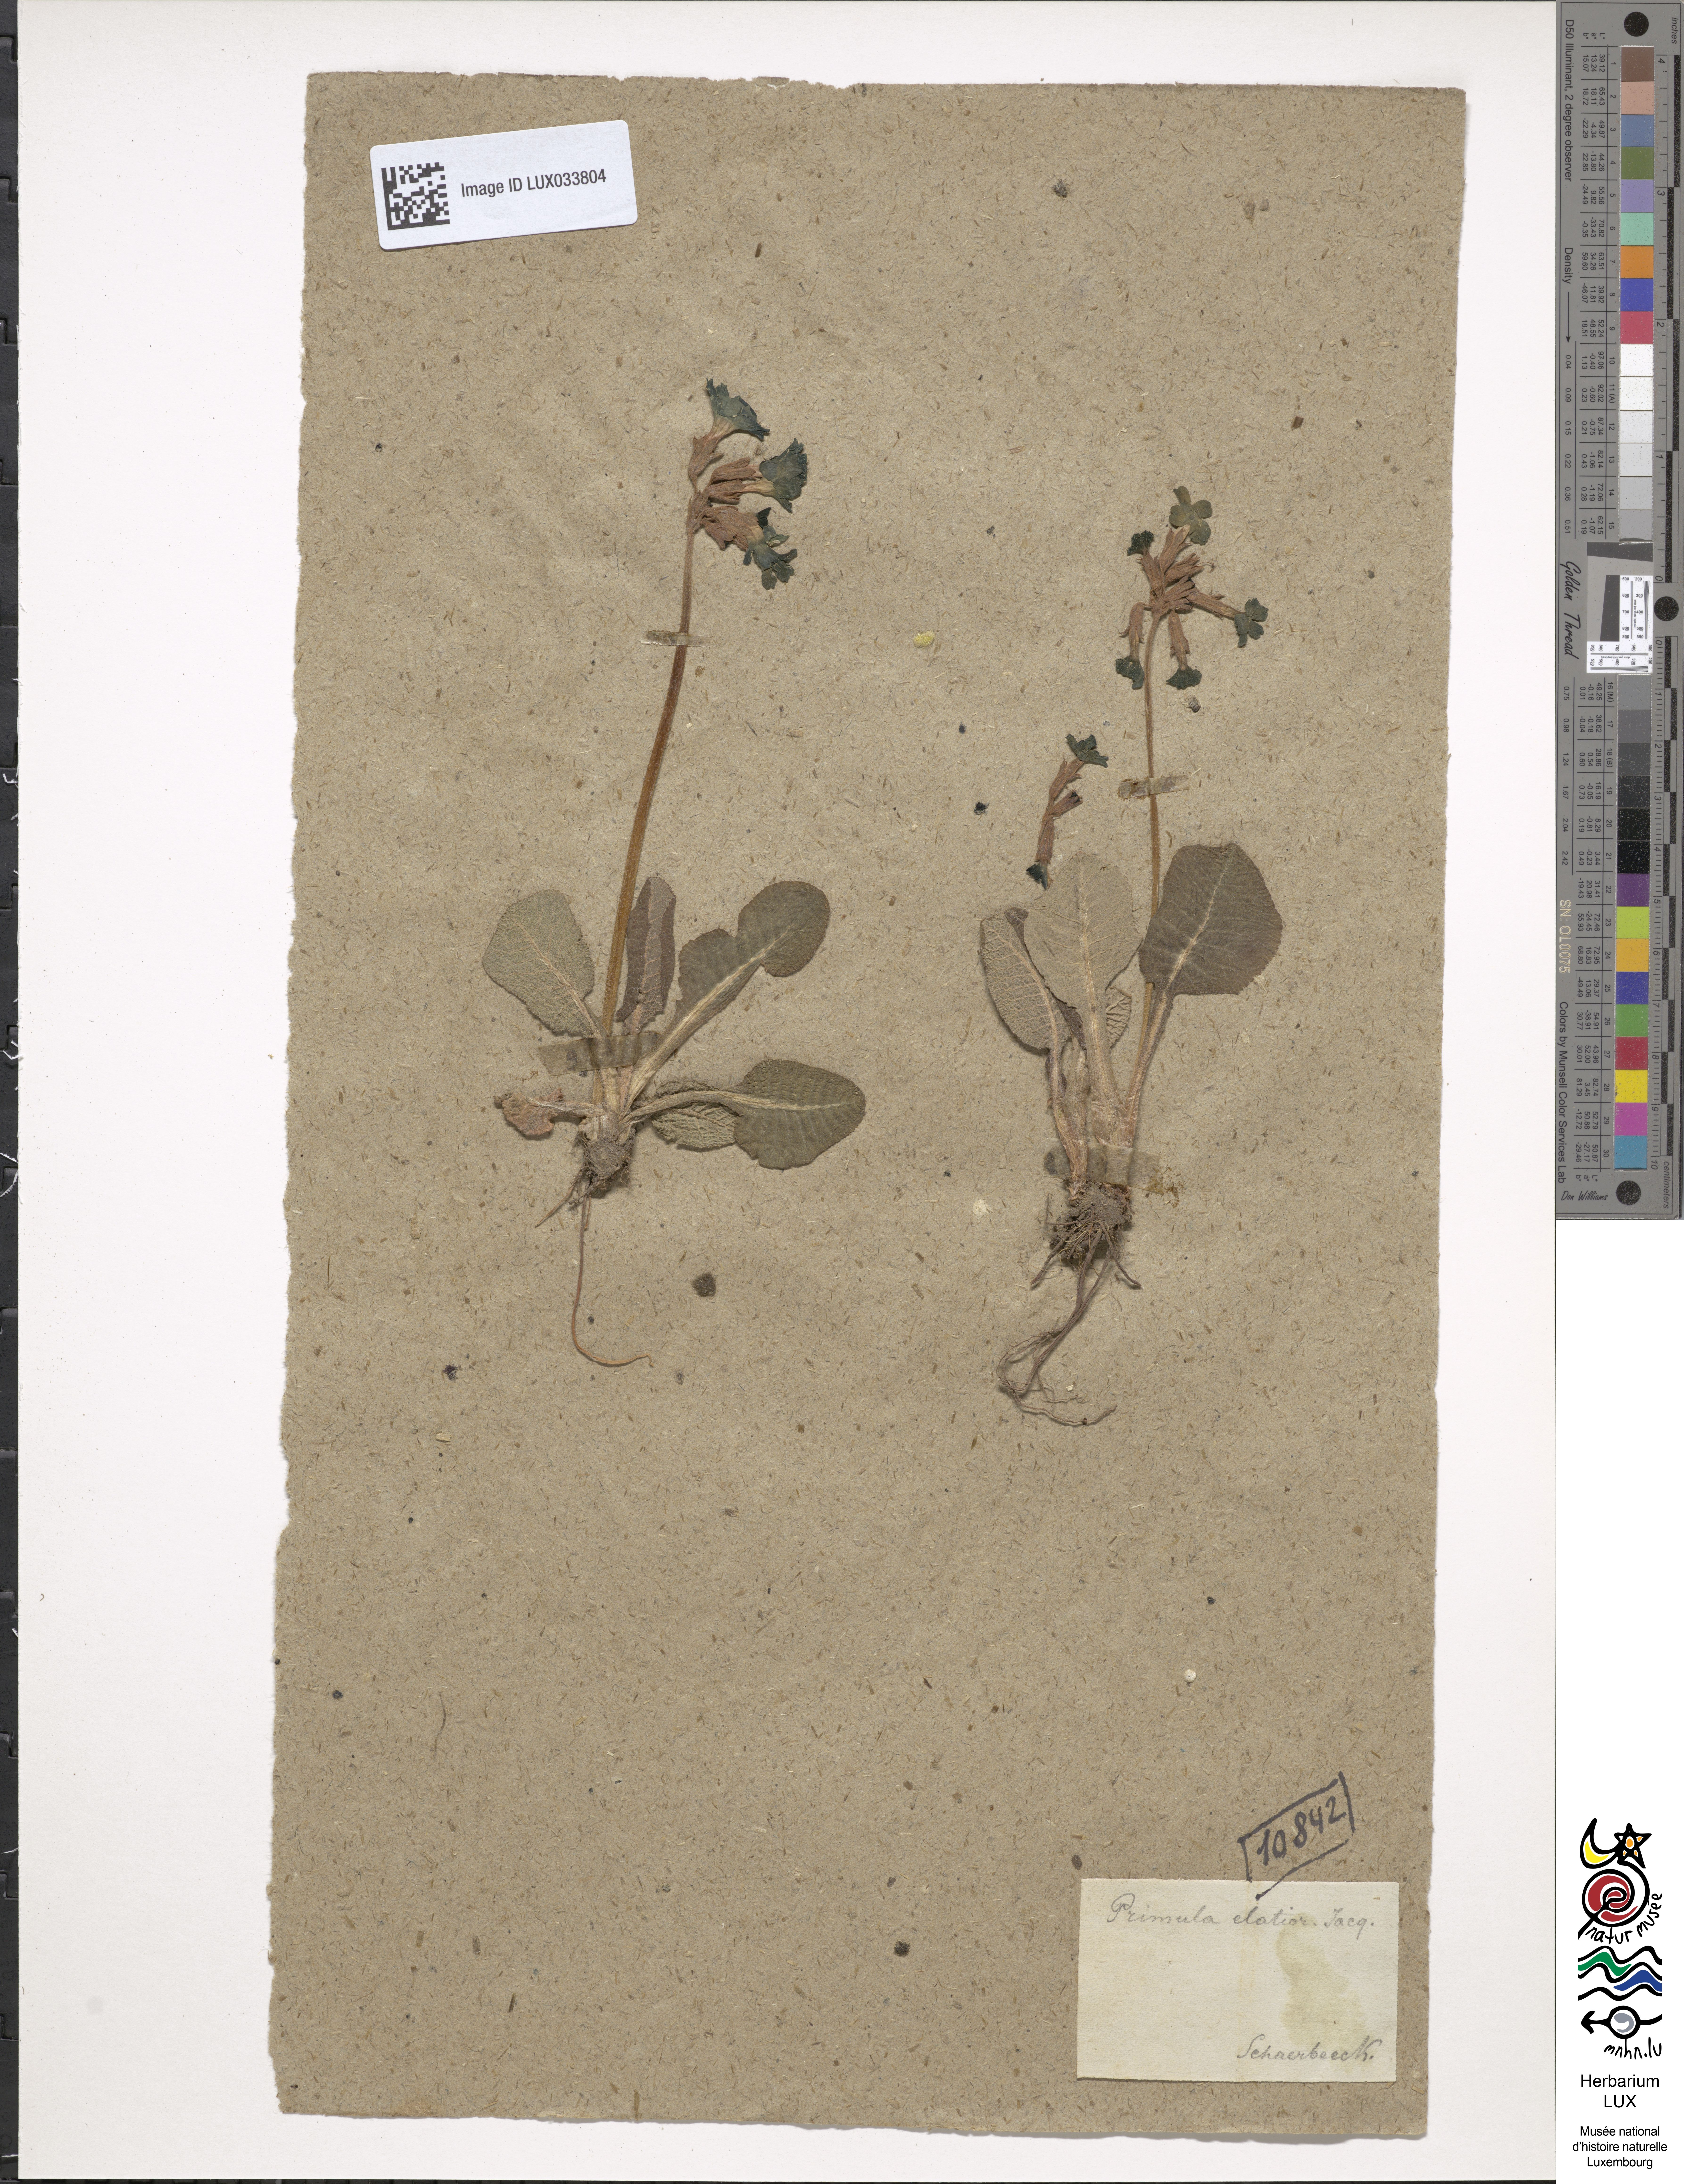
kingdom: Plantae
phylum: Tracheophyta
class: Magnoliopsida
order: Ericales
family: Primulaceae
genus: Primula
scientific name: Primula elatior
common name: Oxlip
